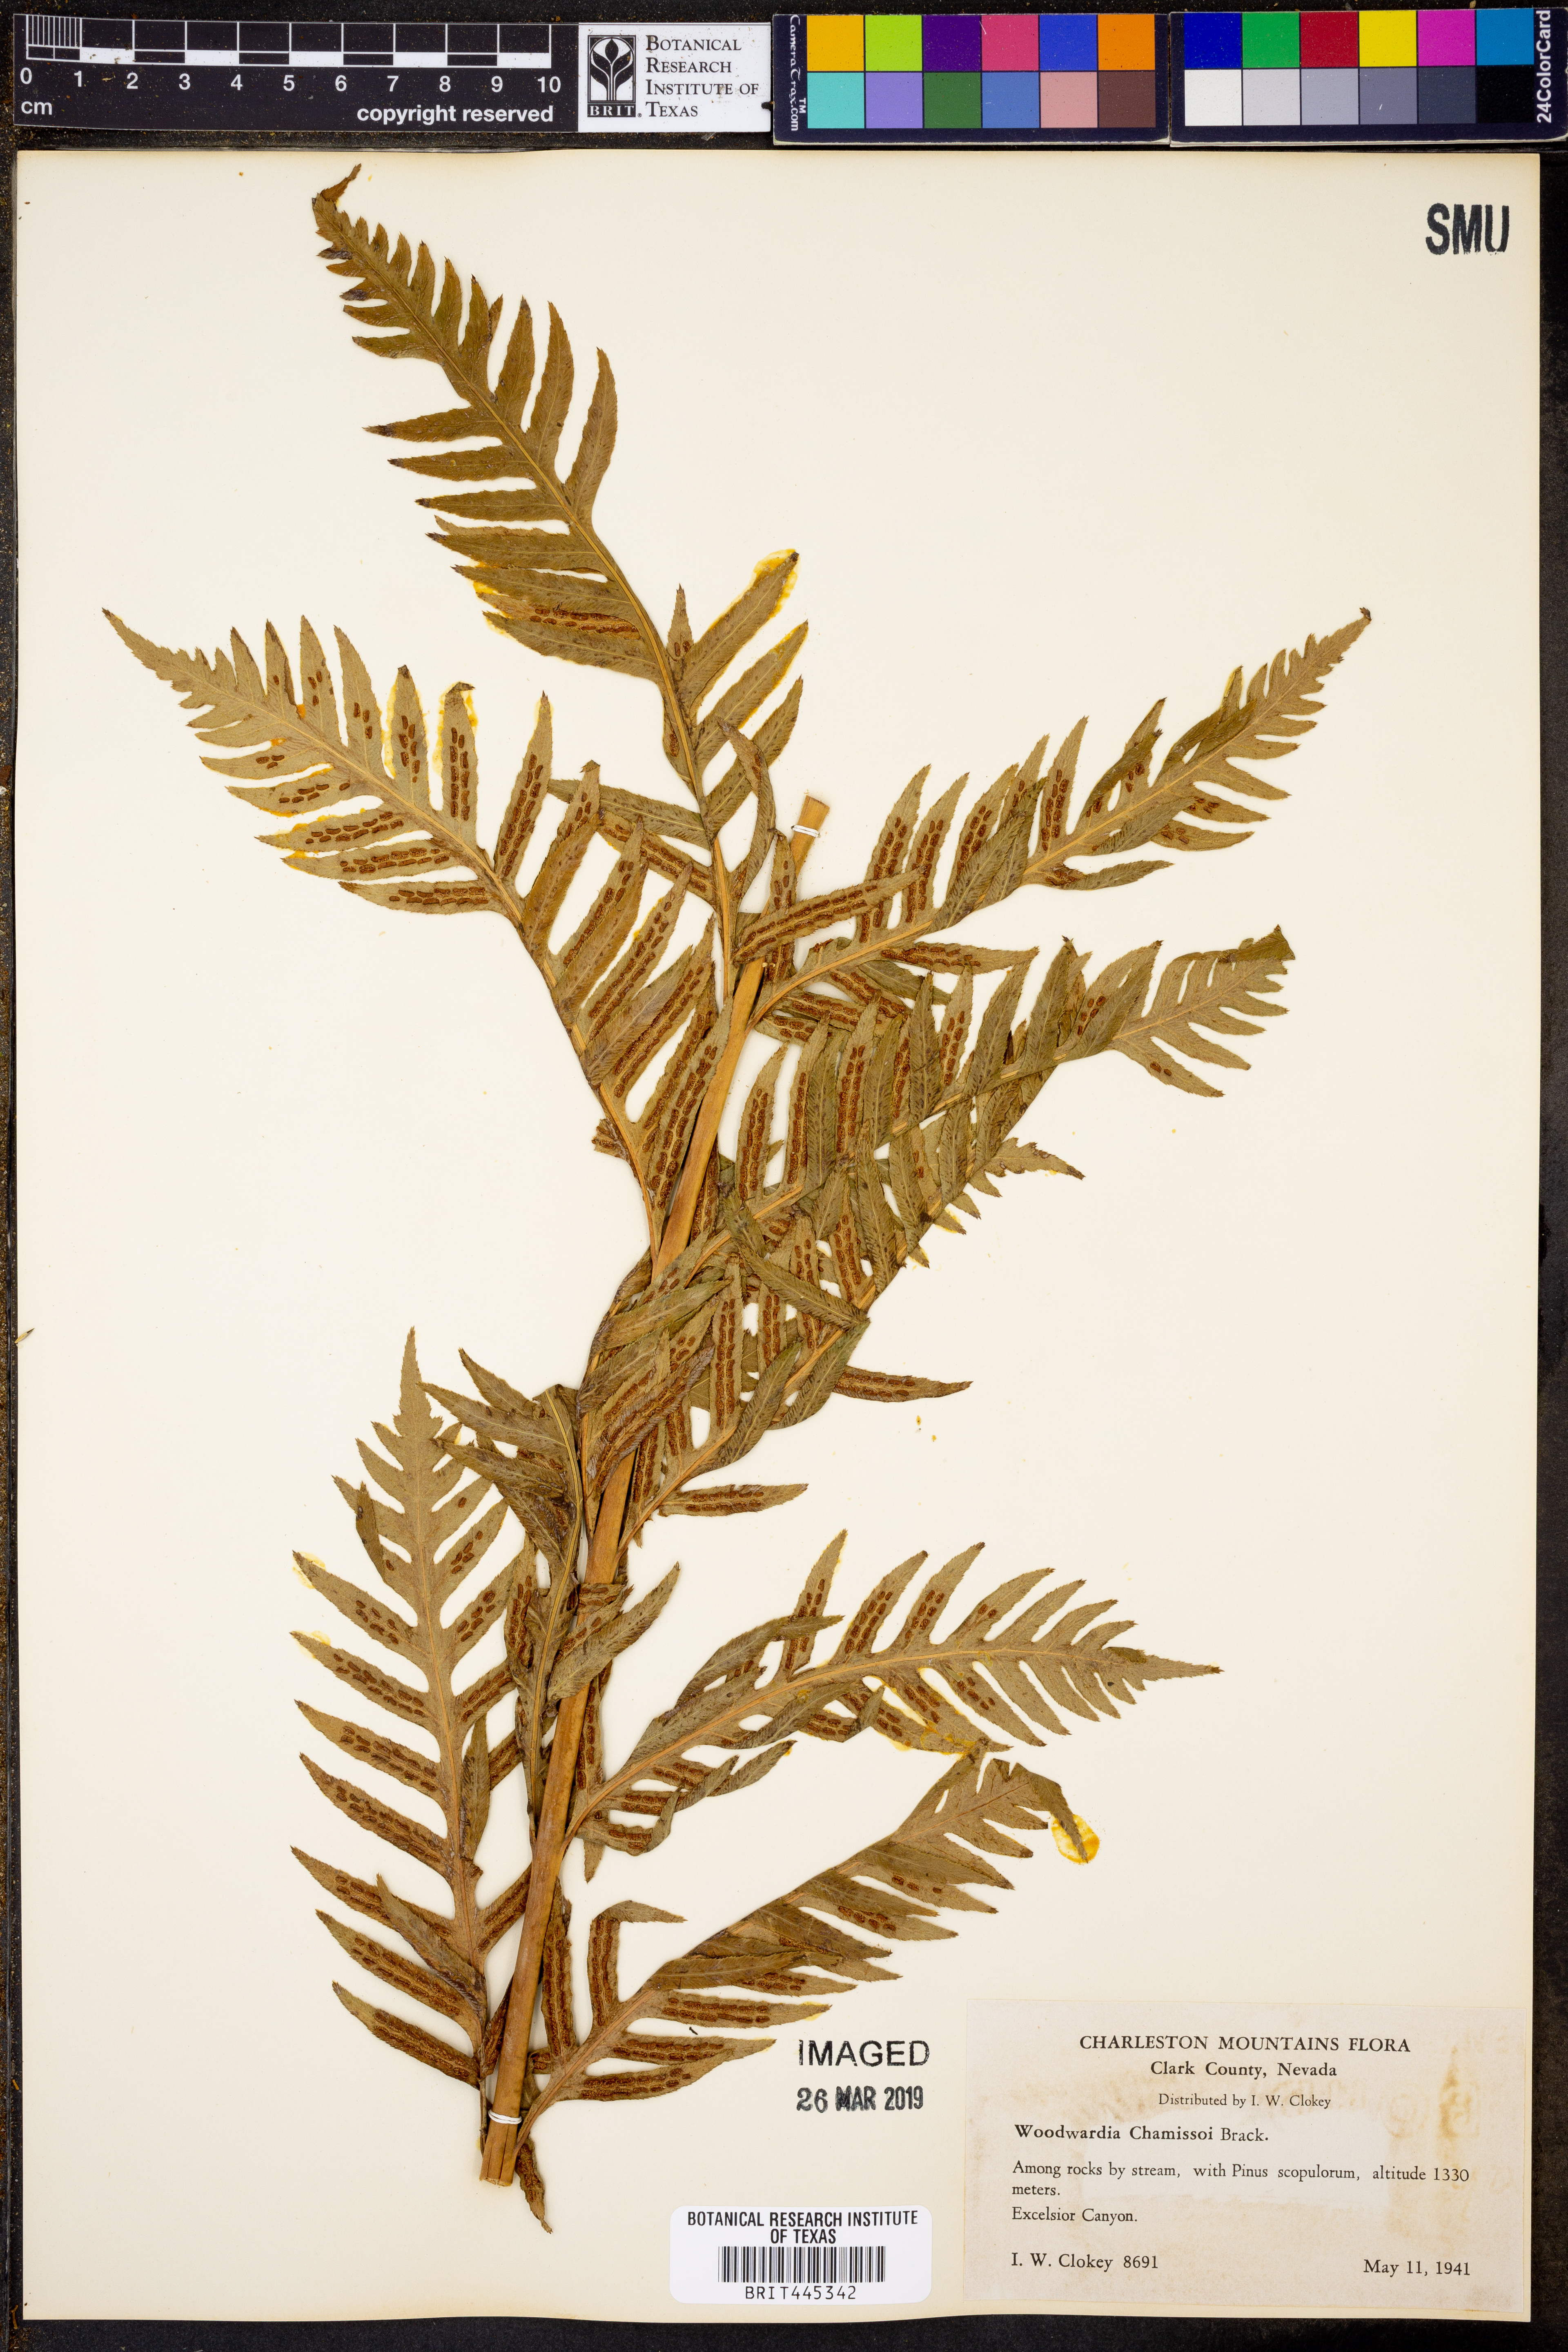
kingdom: Plantae
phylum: Tracheophyta
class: Polypodiopsida
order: Polypodiales
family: Blechnaceae
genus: Woodwardia
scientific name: Woodwardia fimbriata
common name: Giant chain fern
